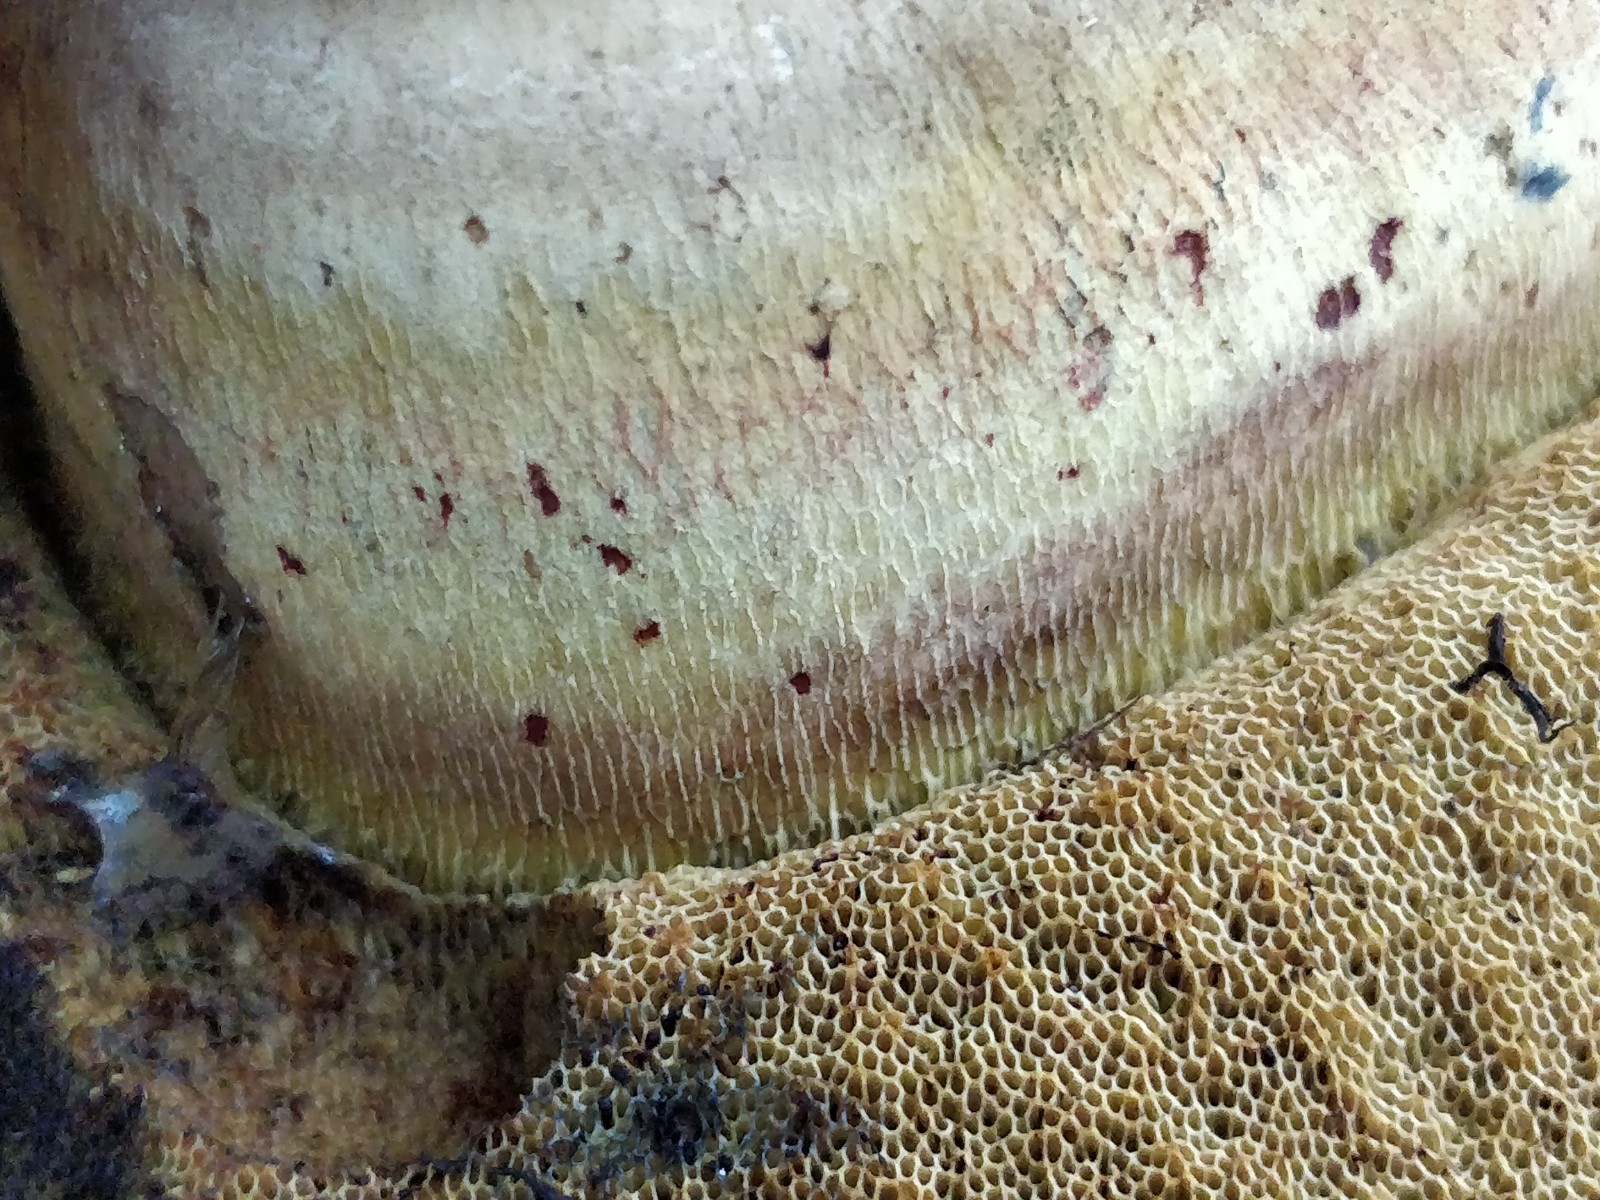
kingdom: Fungi
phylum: Basidiomycota
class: Agaricomycetes
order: Boletales
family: Boletaceae
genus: Caloboletus
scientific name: Caloboletus radicans
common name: rod-rørhat
